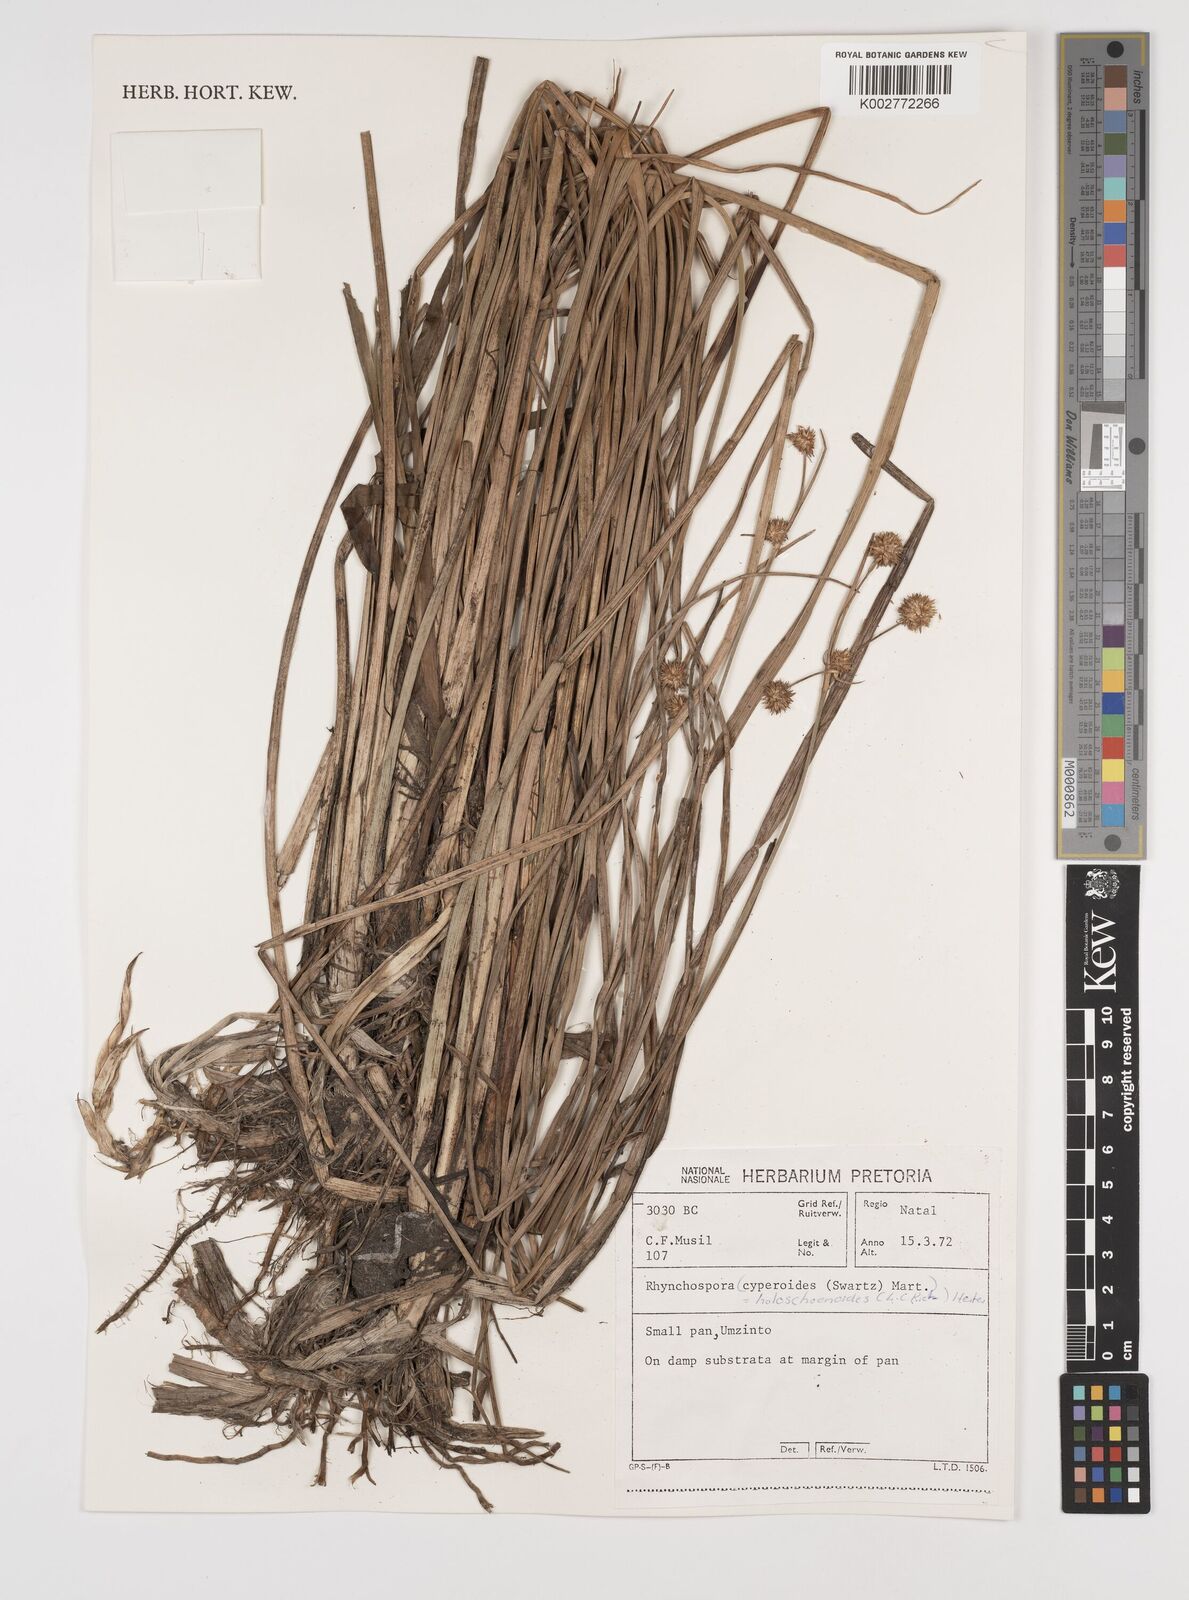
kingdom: Plantae
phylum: Tracheophyta
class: Liliopsida
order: Poales
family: Cyperaceae
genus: Rhynchospora
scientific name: Rhynchospora holoschoenoides
